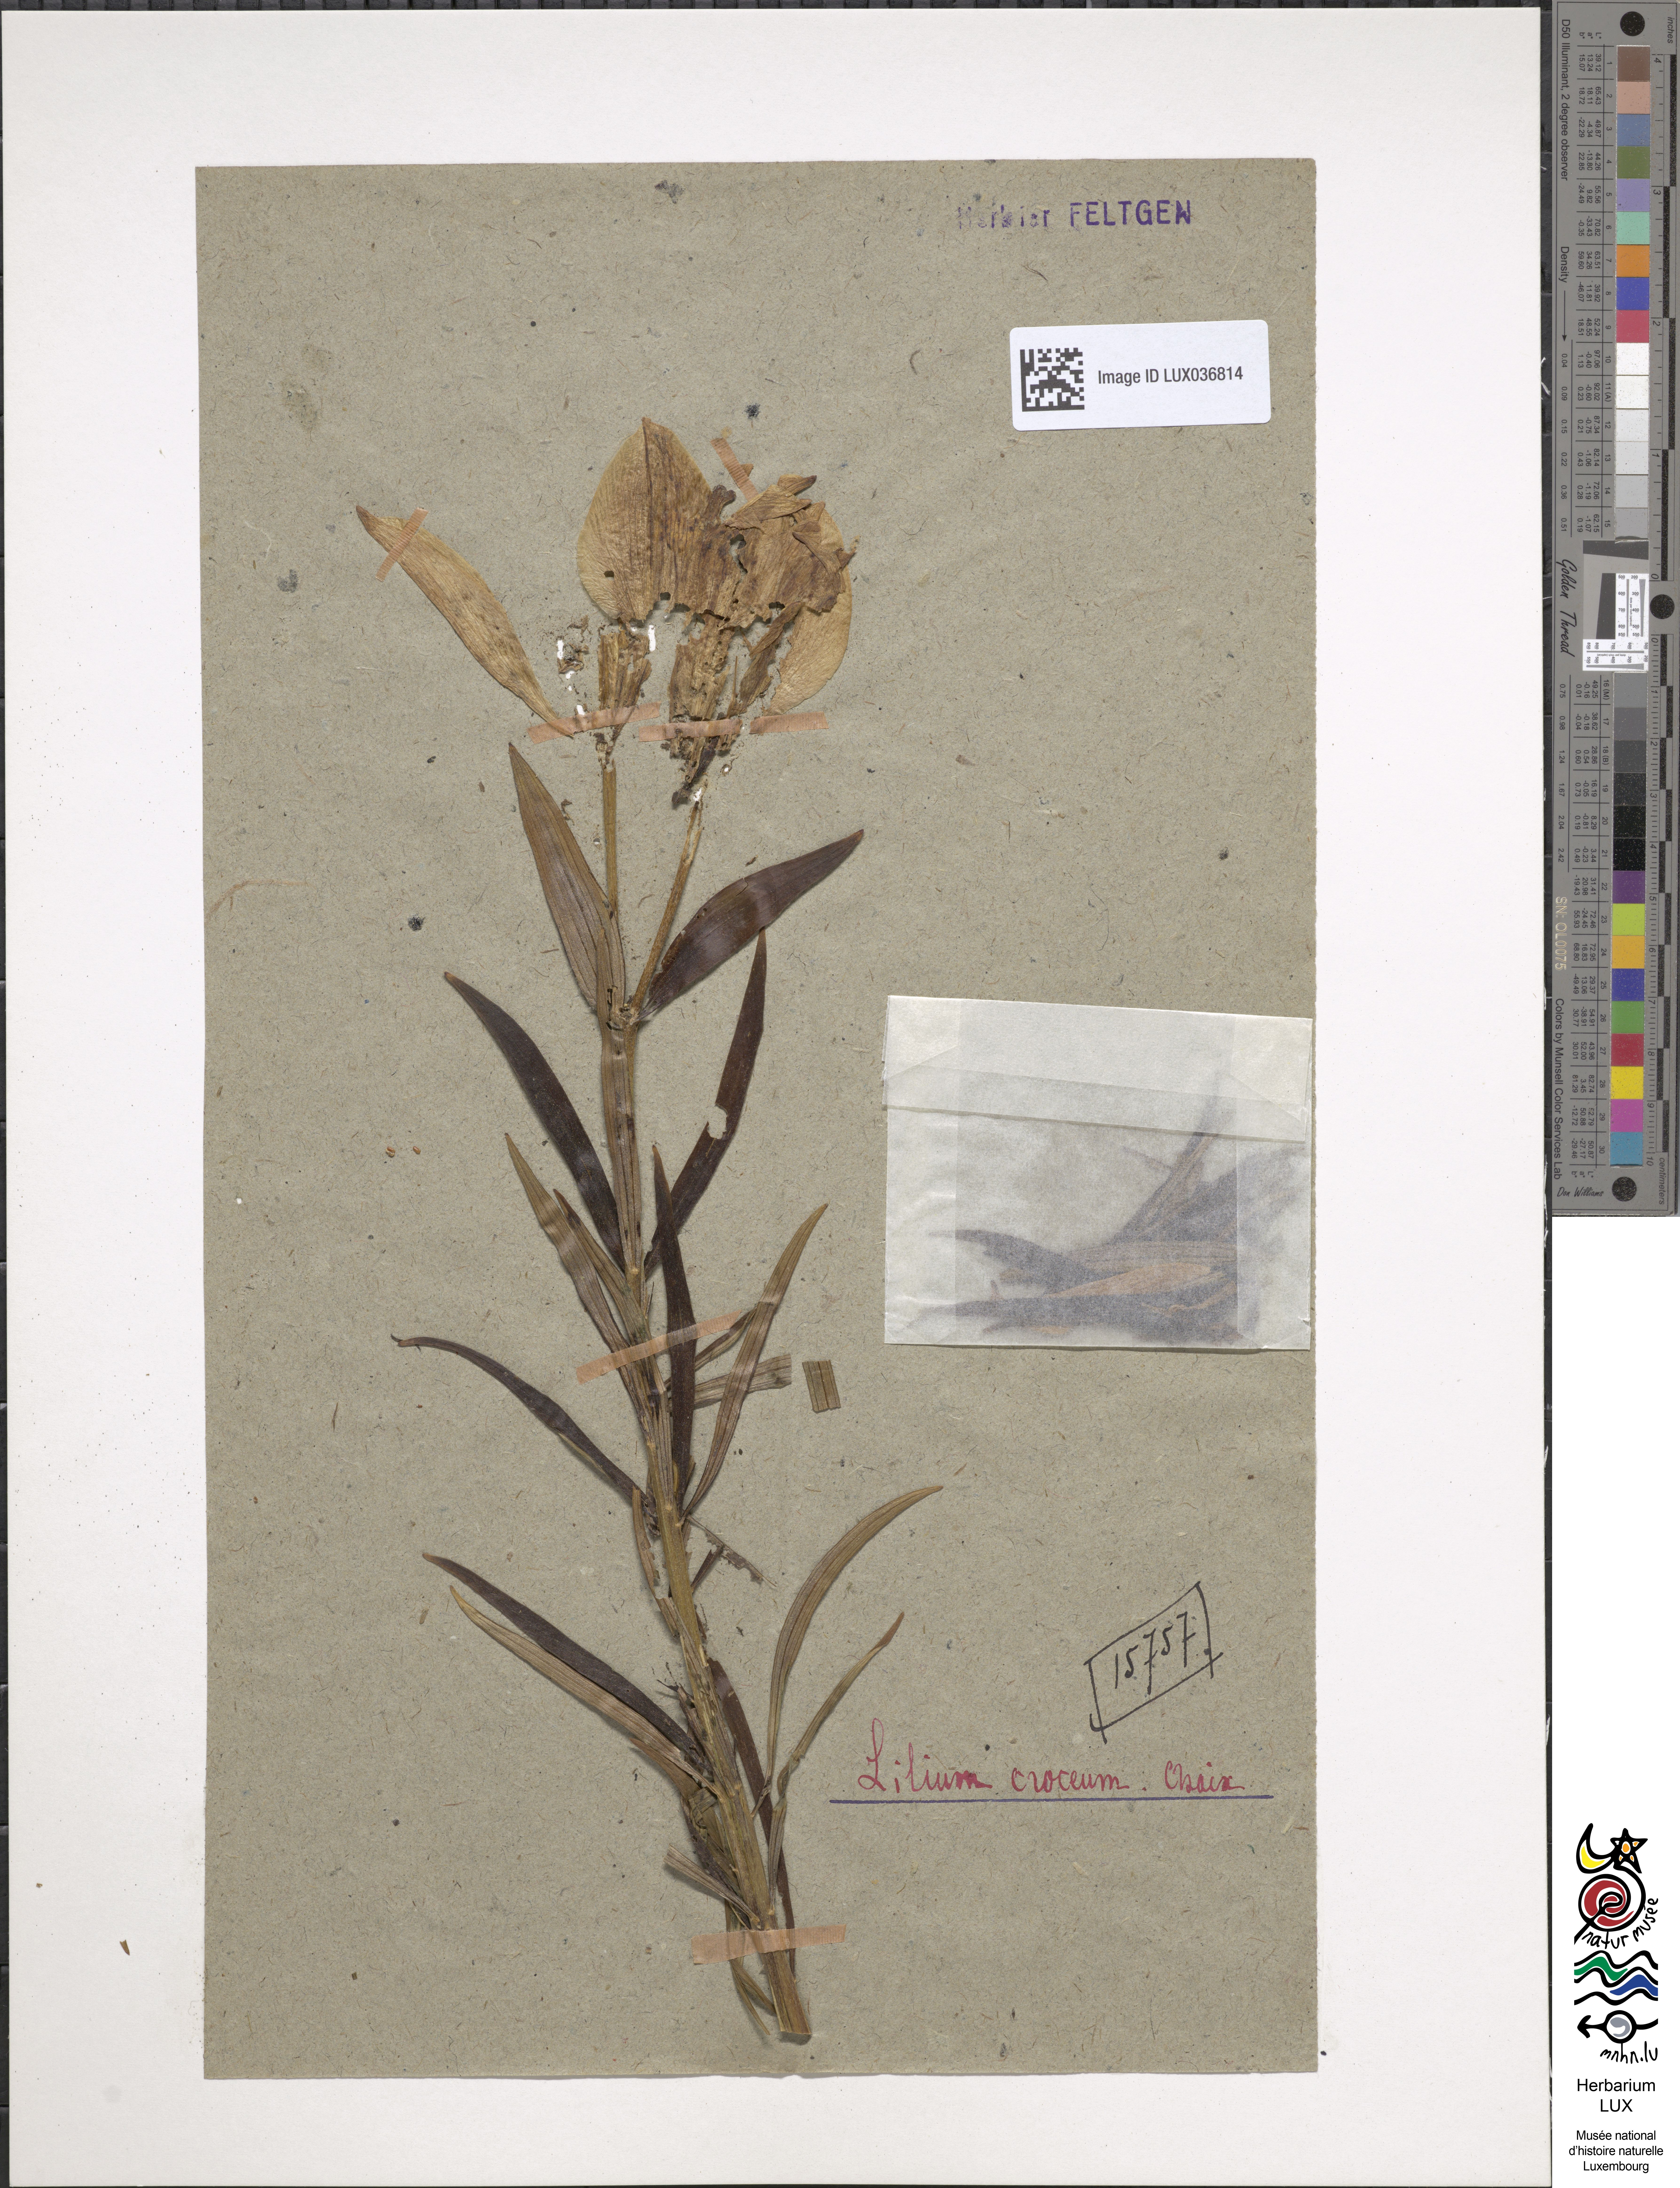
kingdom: Plantae
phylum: Tracheophyta
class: Liliopsida
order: Liliales
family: Liliaceae
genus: Lilium
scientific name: Lilium bulbiferum
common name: Orange lily
